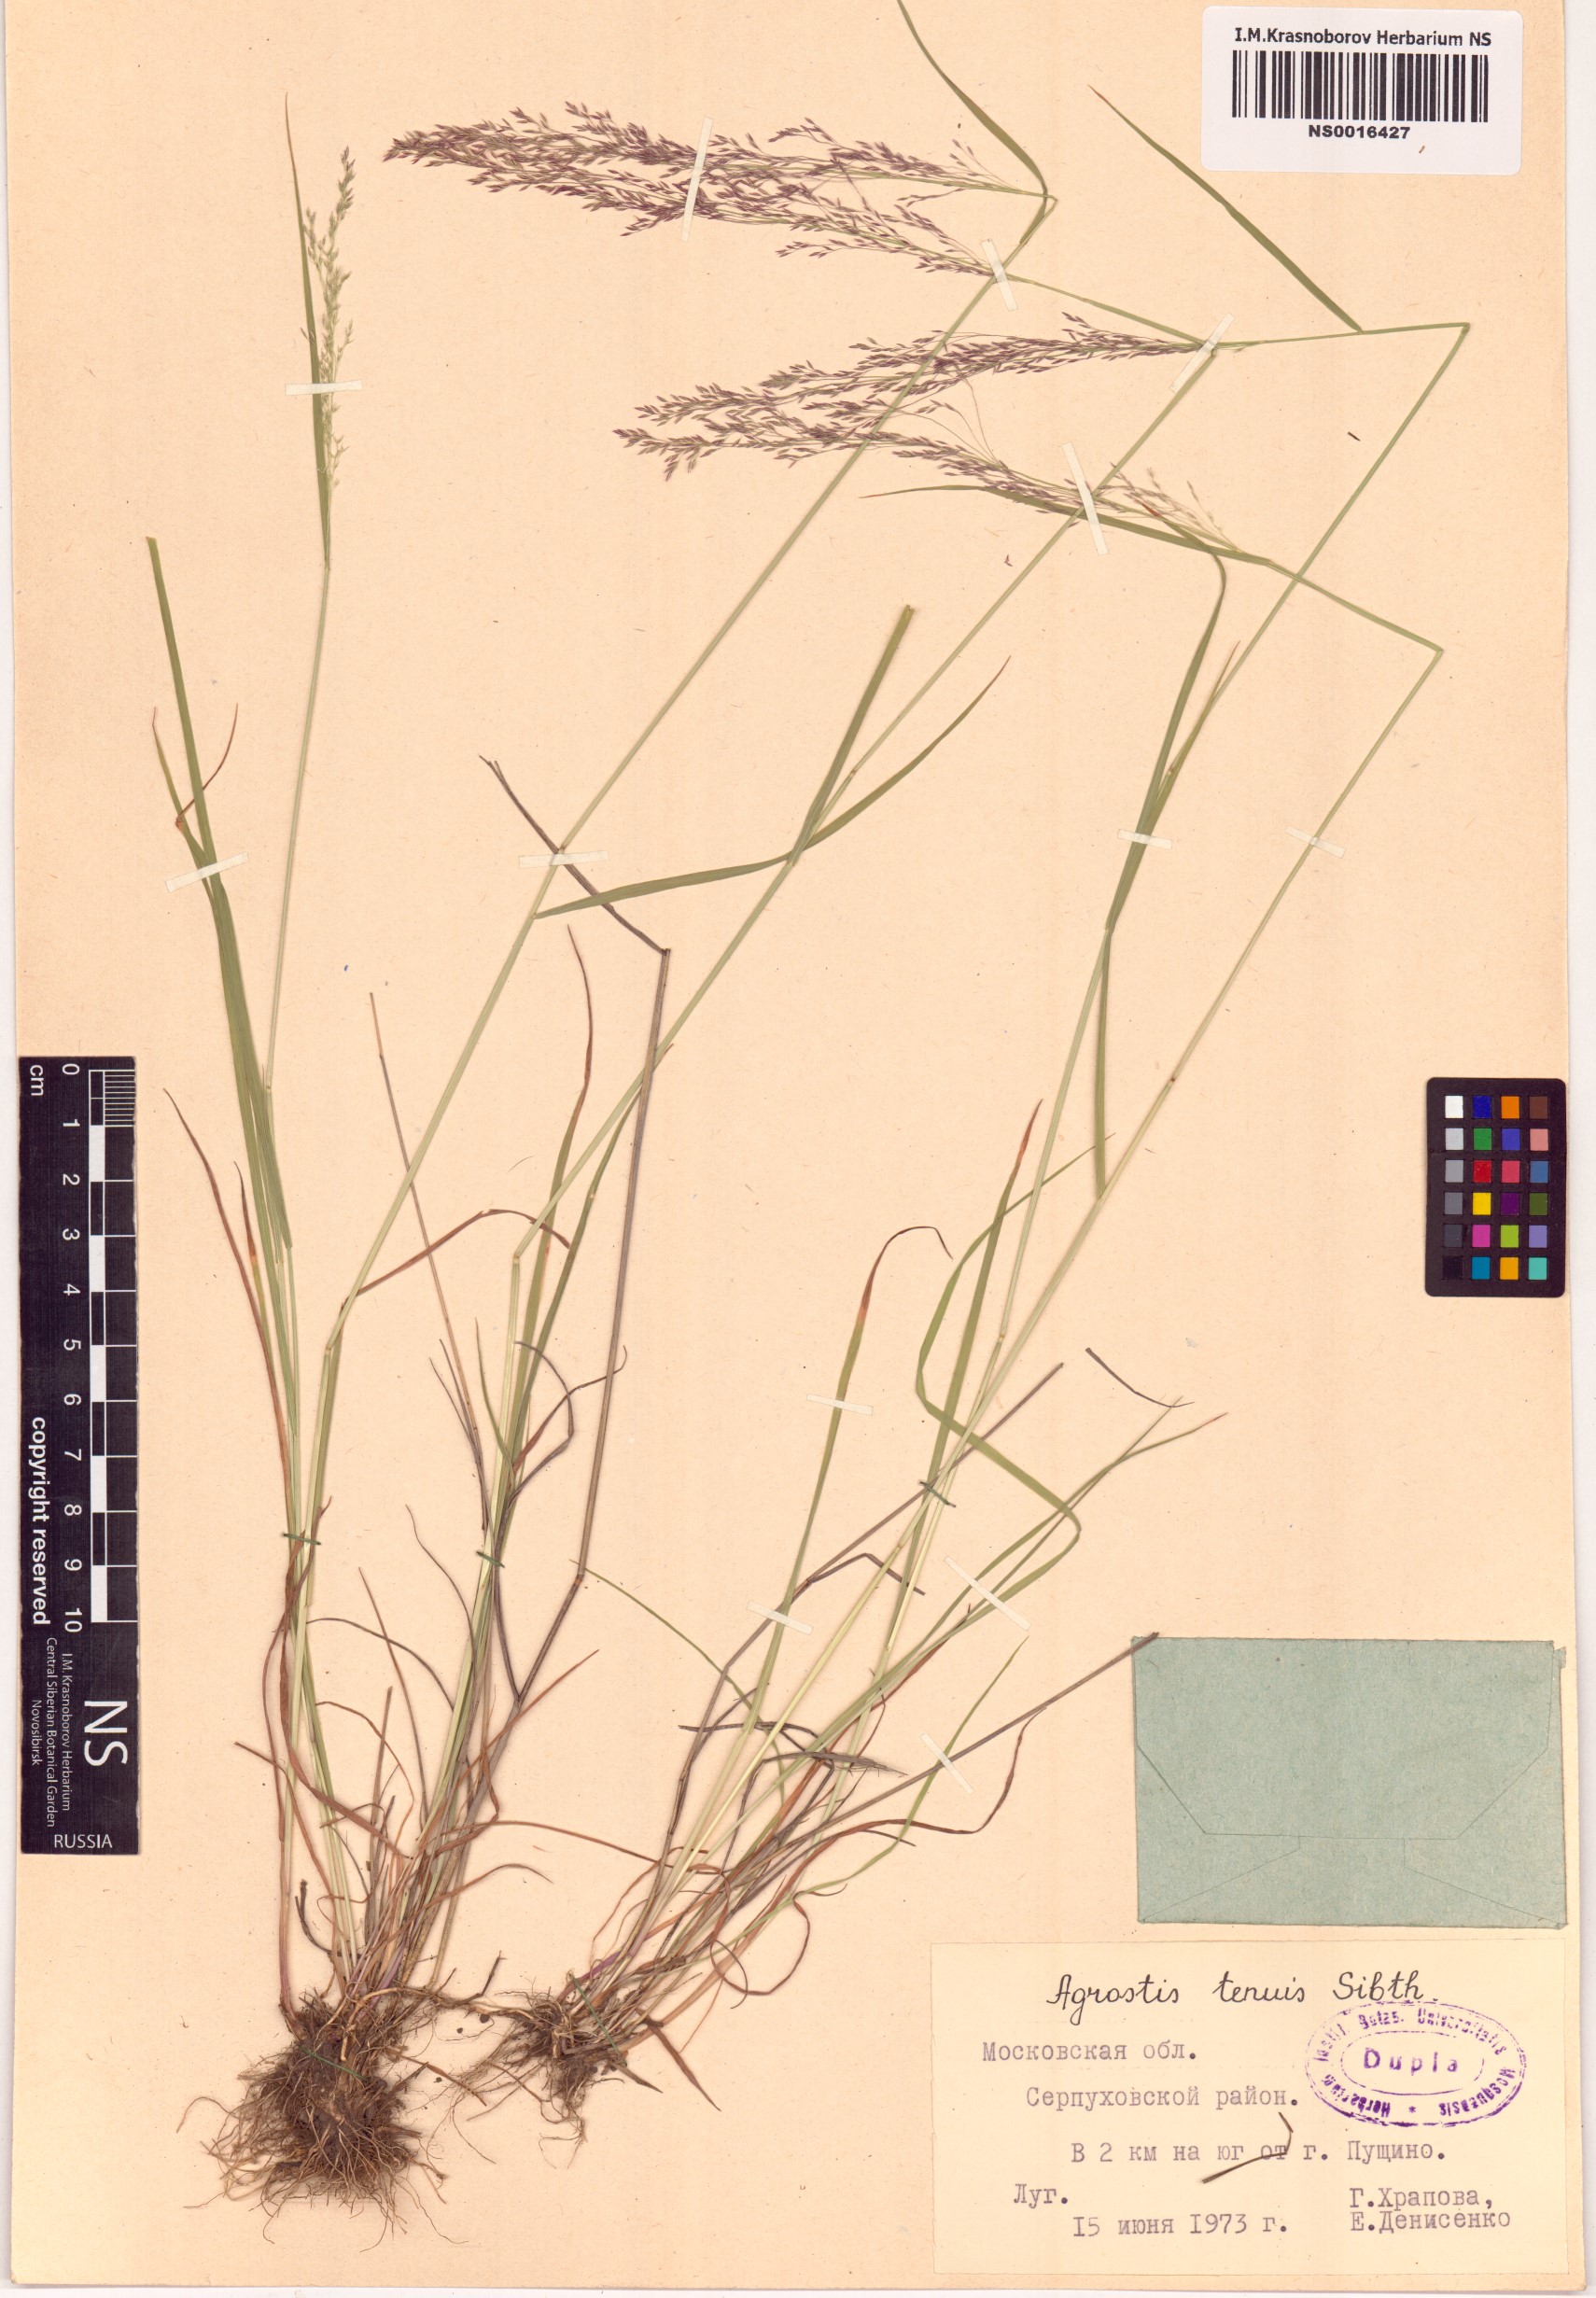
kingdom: Plantae
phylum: Tracheophyta
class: Liliopsida
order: Poales
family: Poaceae
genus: Agrostis
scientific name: Agrostis capillaris
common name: Colonial bentgrass
